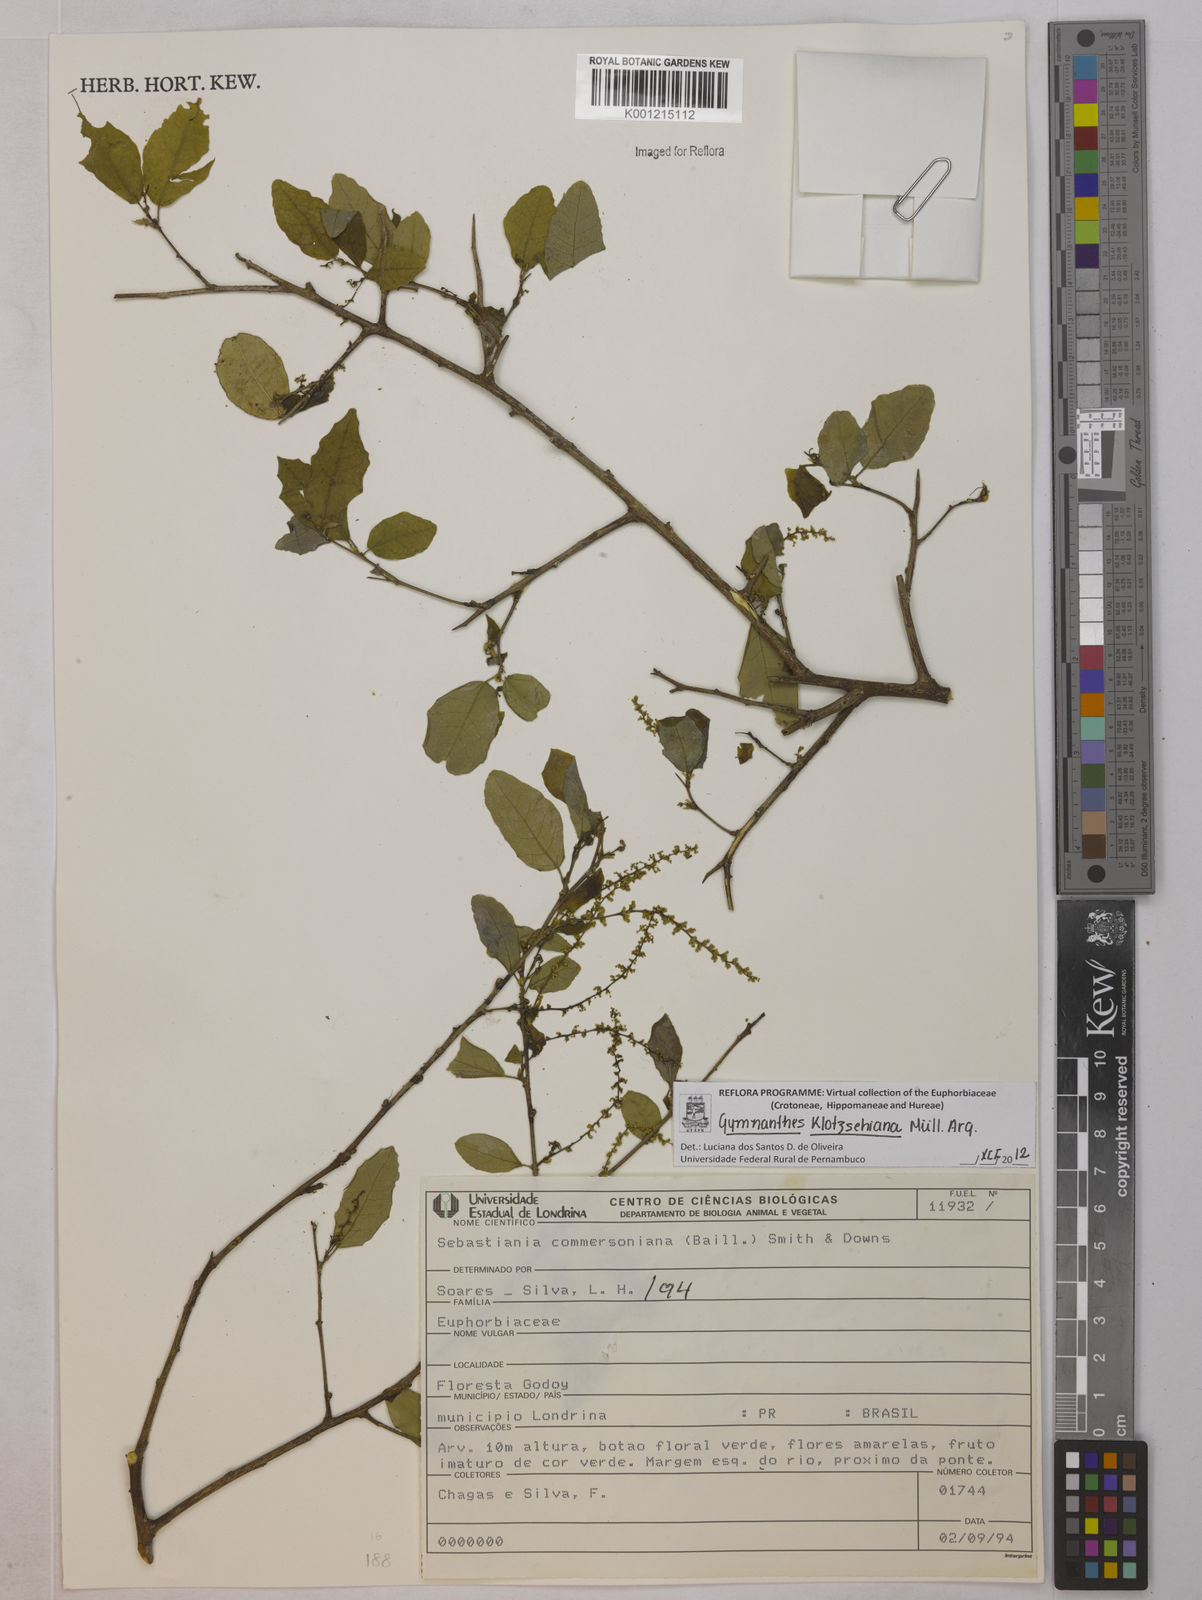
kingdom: Plantae
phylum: Tracheophyta
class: Magnoliopsida
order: Malpighiales
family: Euphorbiaceae
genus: Gymnanthes
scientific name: Gymnanthes
